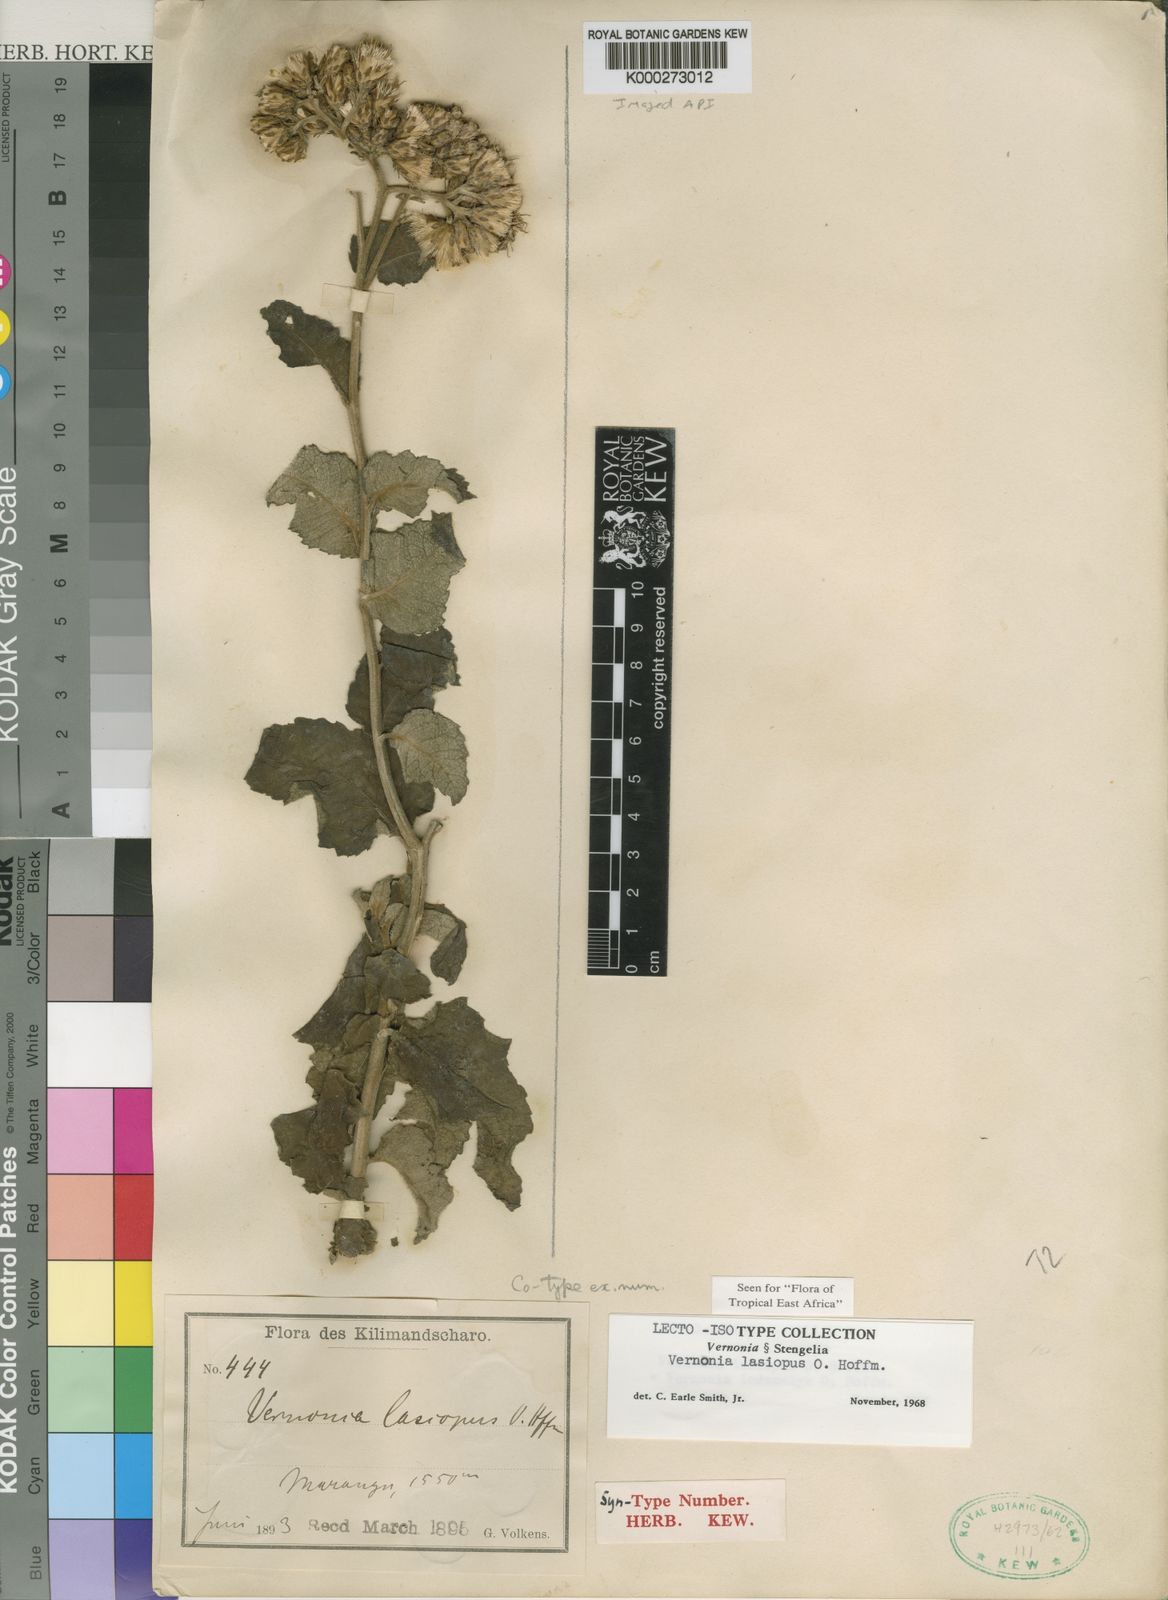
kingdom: Plantae
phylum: Tracheophyta
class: Magnoliopsida
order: Asterales
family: Asteraceae
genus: Baccharoides
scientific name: Baccharoides lasiopus
